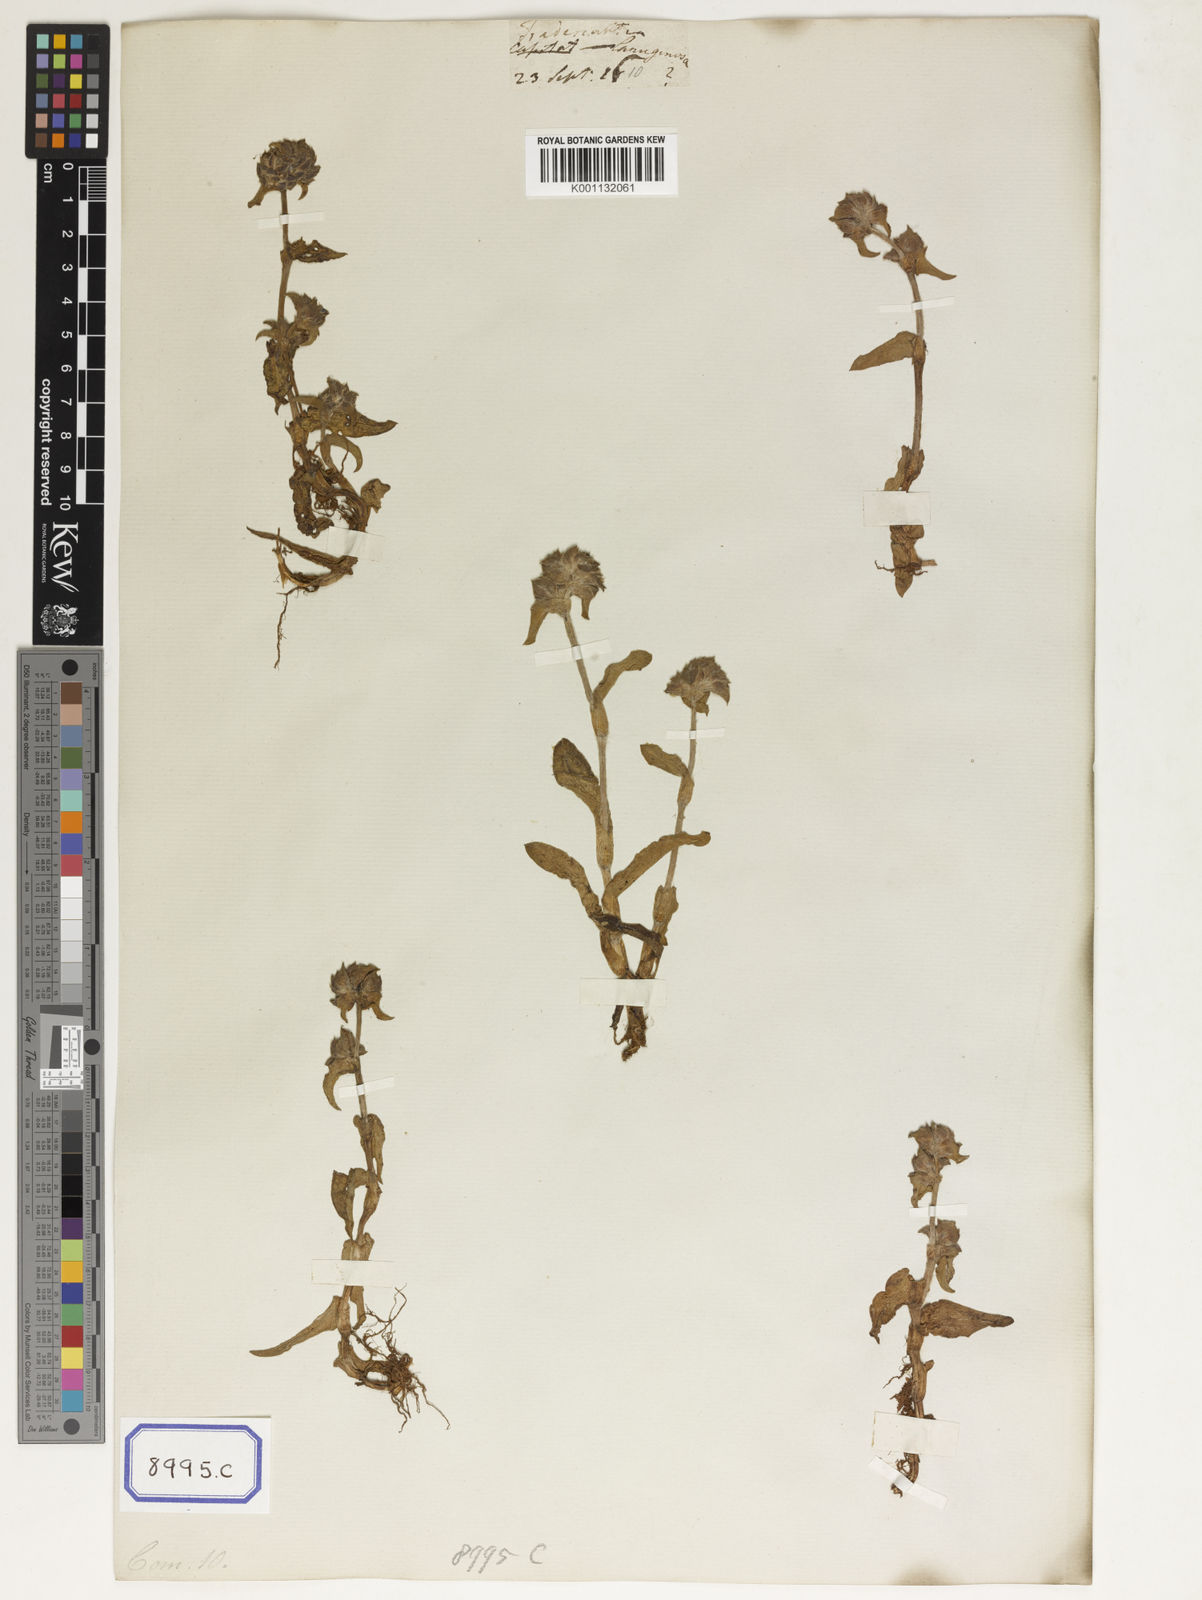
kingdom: Plantae
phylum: Tracheophyta
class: Liliopsida
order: Commelinales
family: Commelinaceae
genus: Cyanotis
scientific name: Cyanotis villosa
